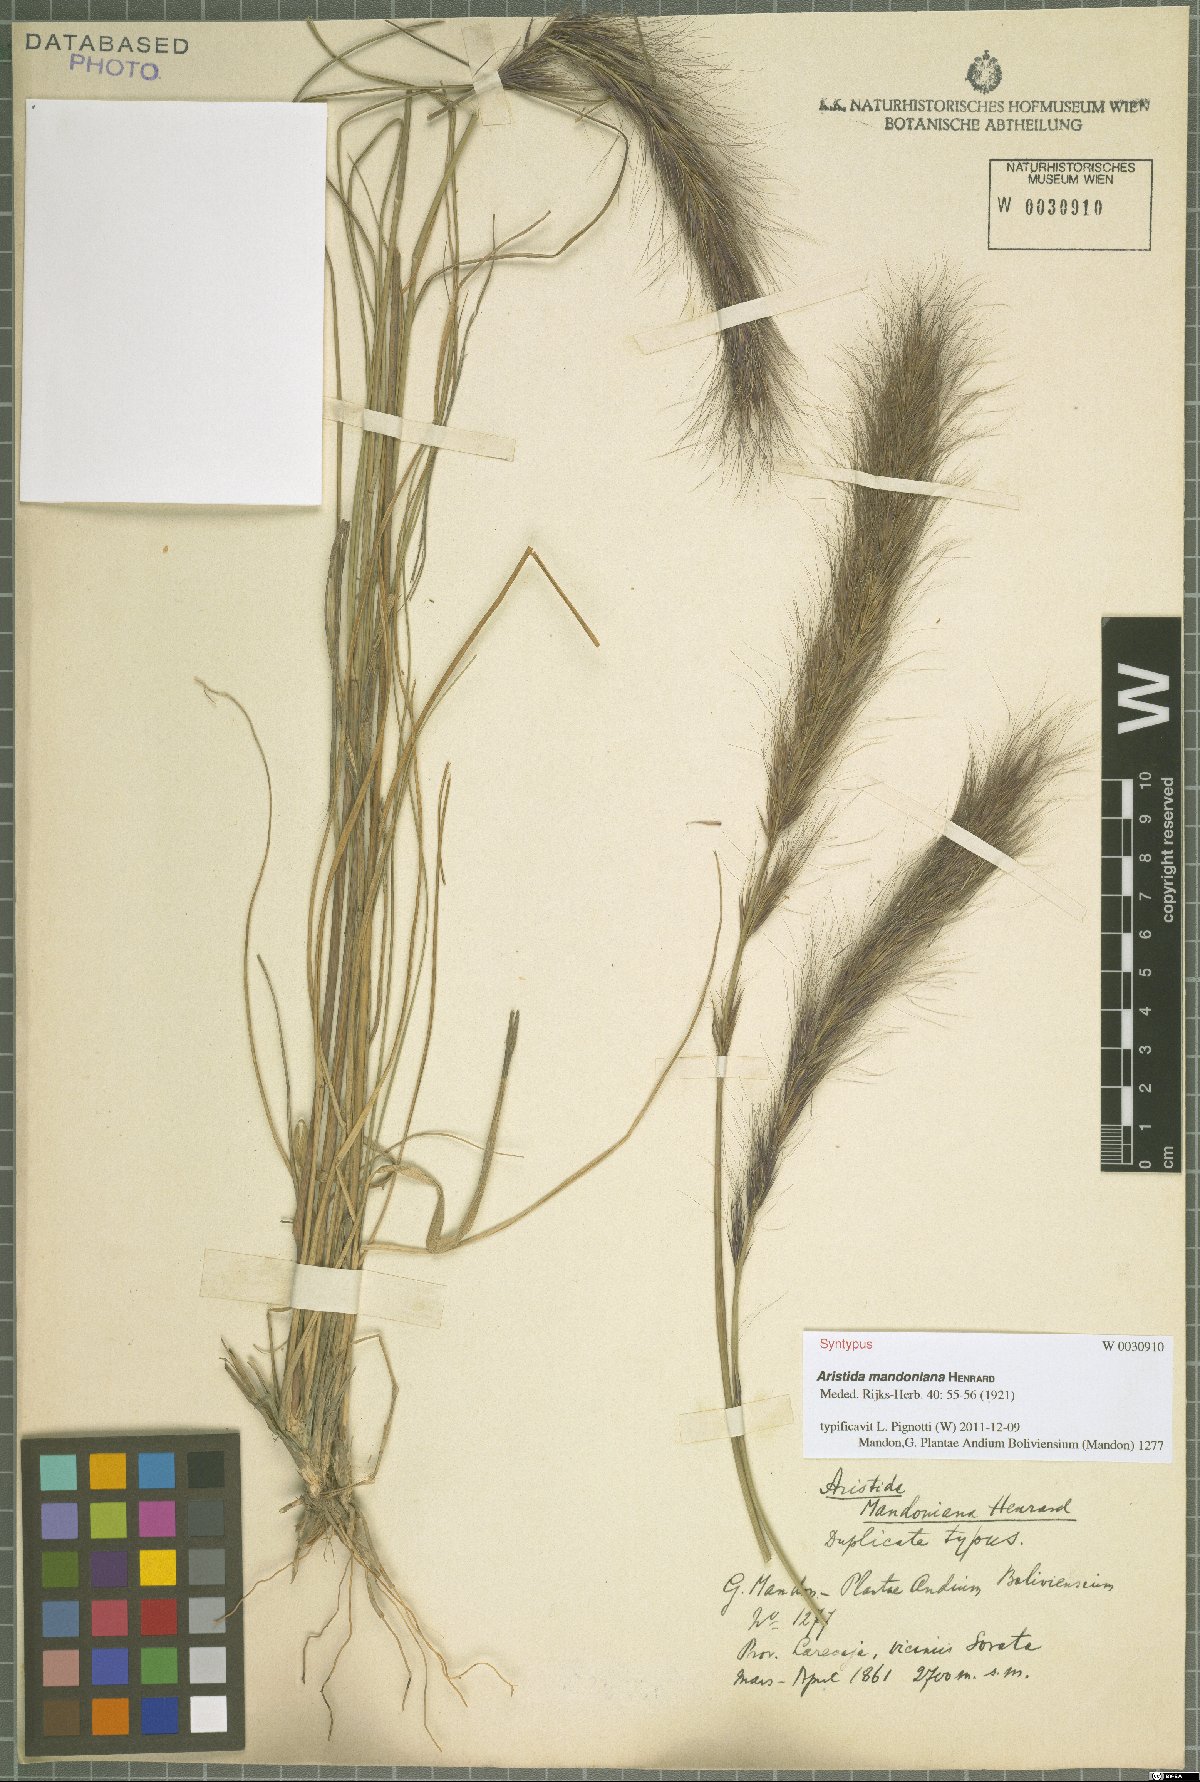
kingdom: Plantae
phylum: Tracheophyta
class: Liliopsida
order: Poales
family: Poaceae
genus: Aristida
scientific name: Aristida mandoniana
